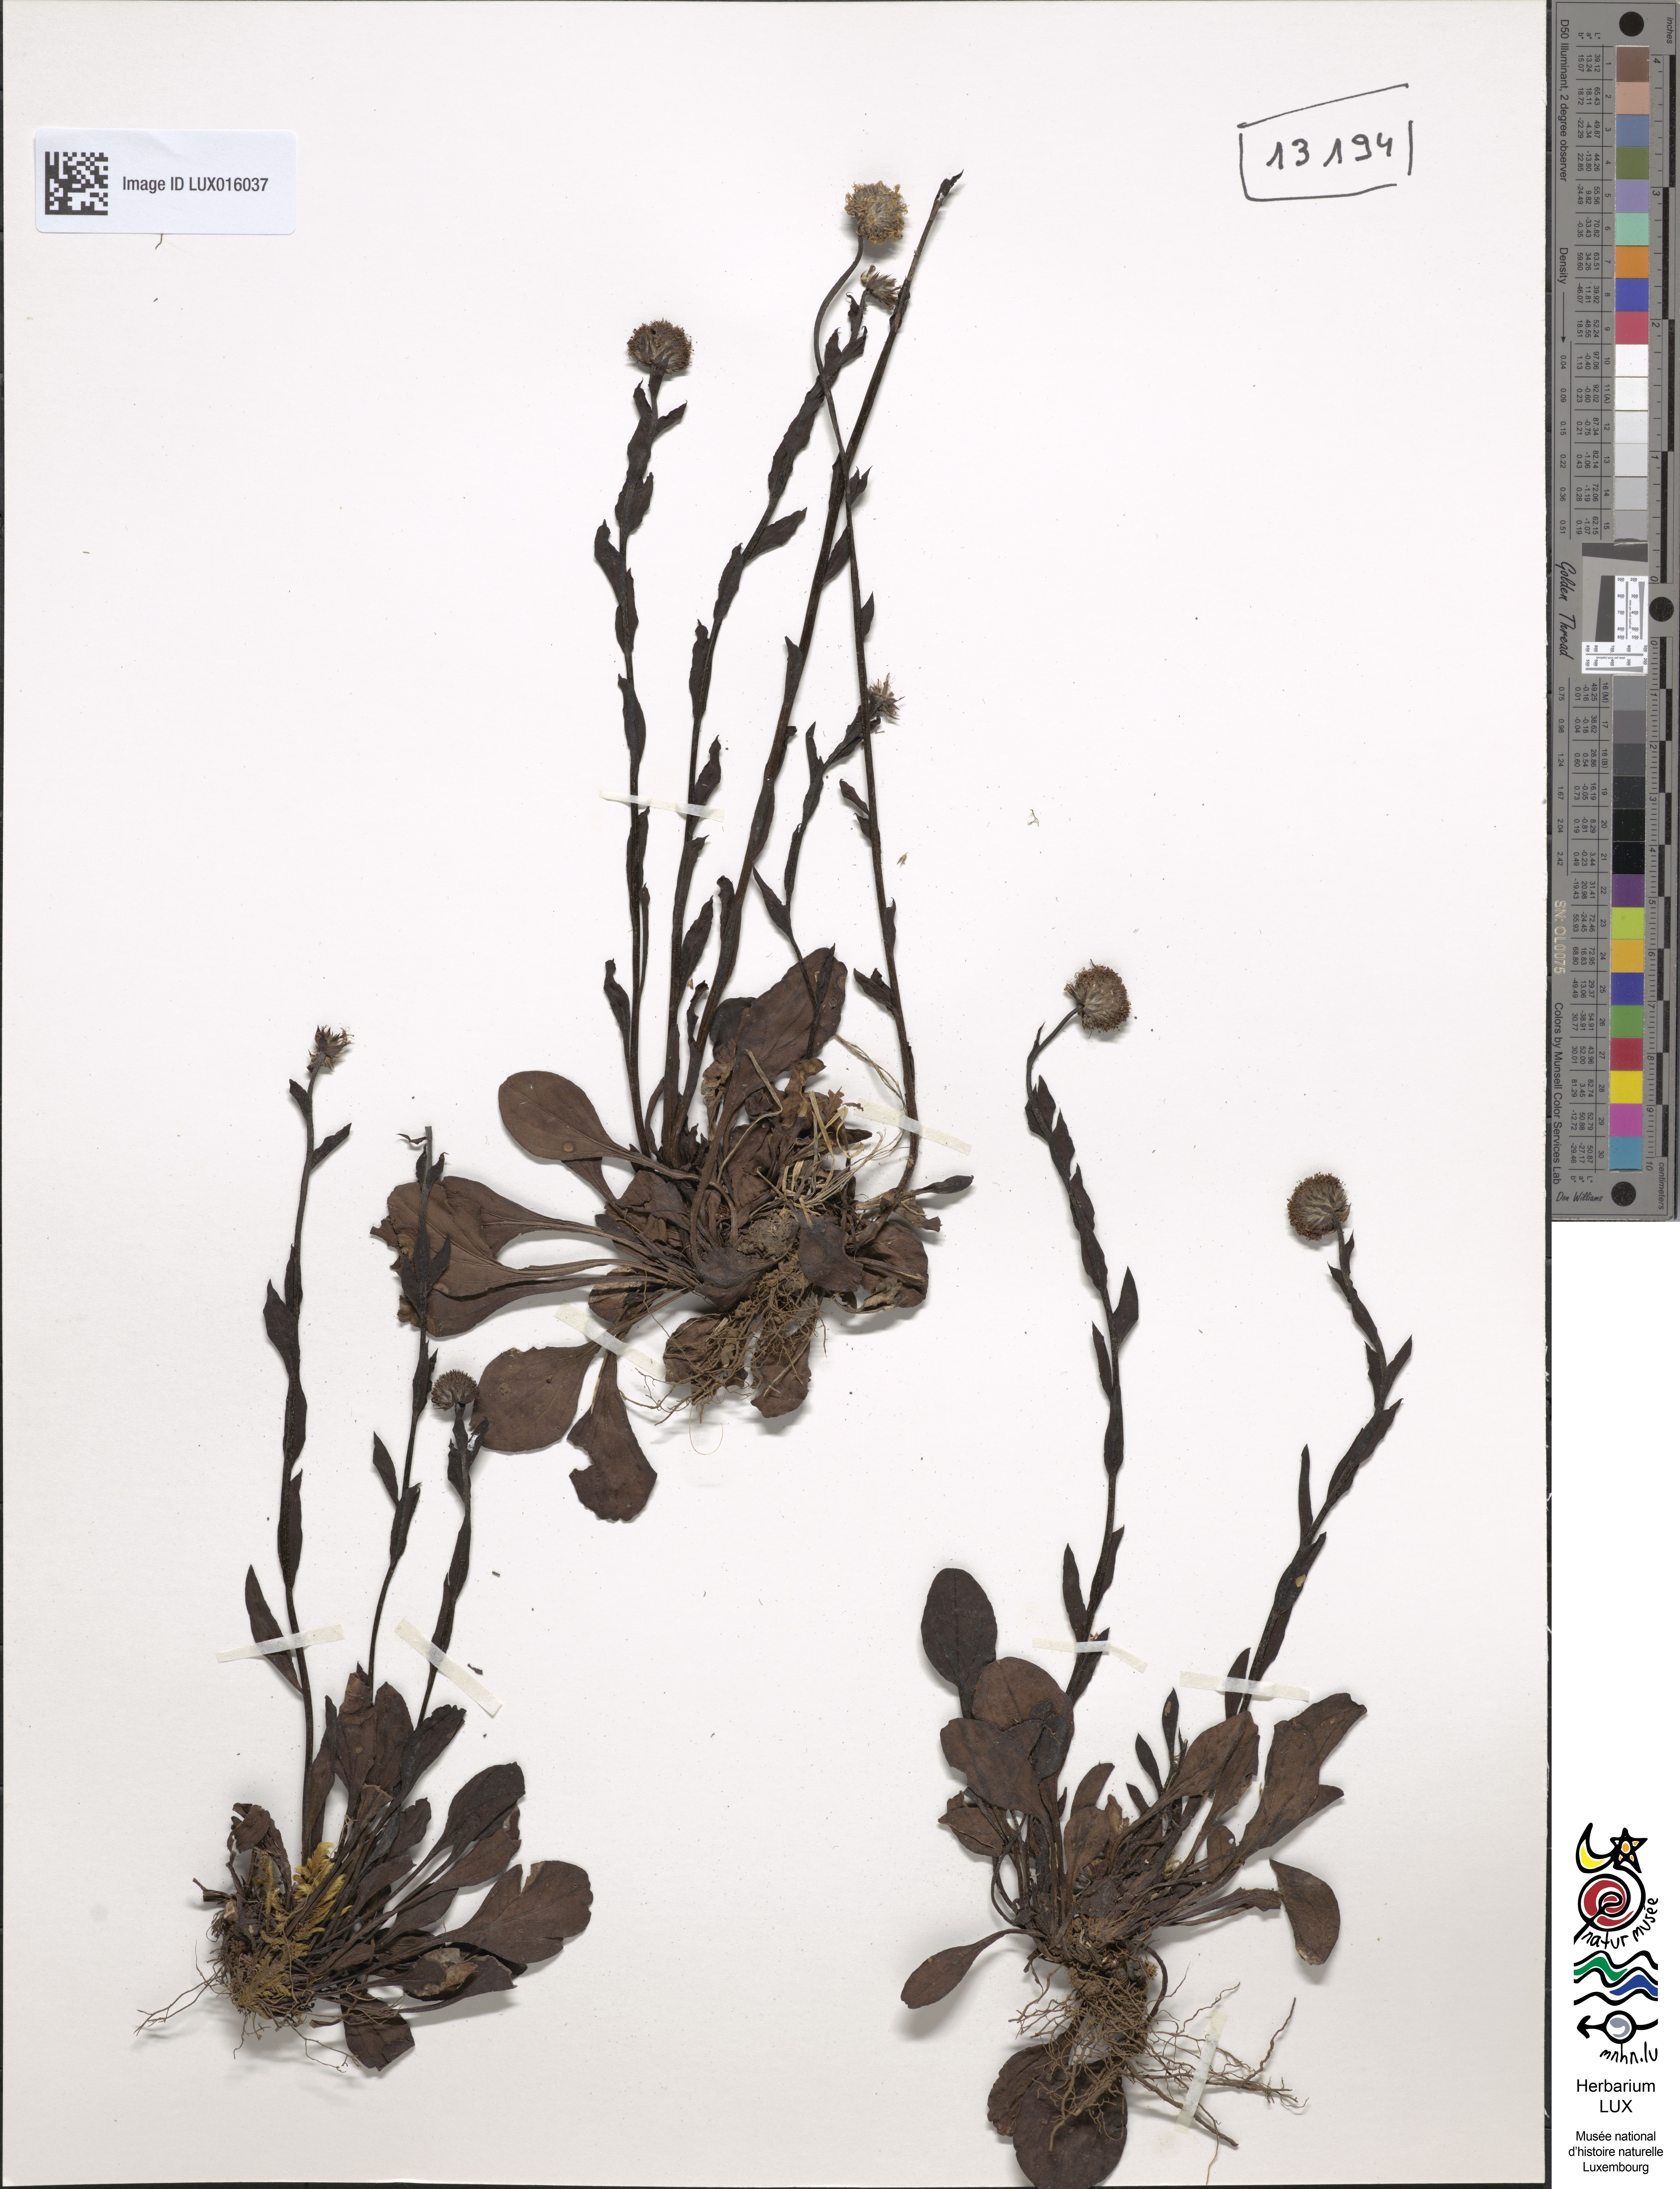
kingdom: Plantae
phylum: Tracheophyta
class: Magnoliopsida
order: Lamiales
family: Plantaginaceae
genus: Globularia
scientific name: Globularia bisnagarica
